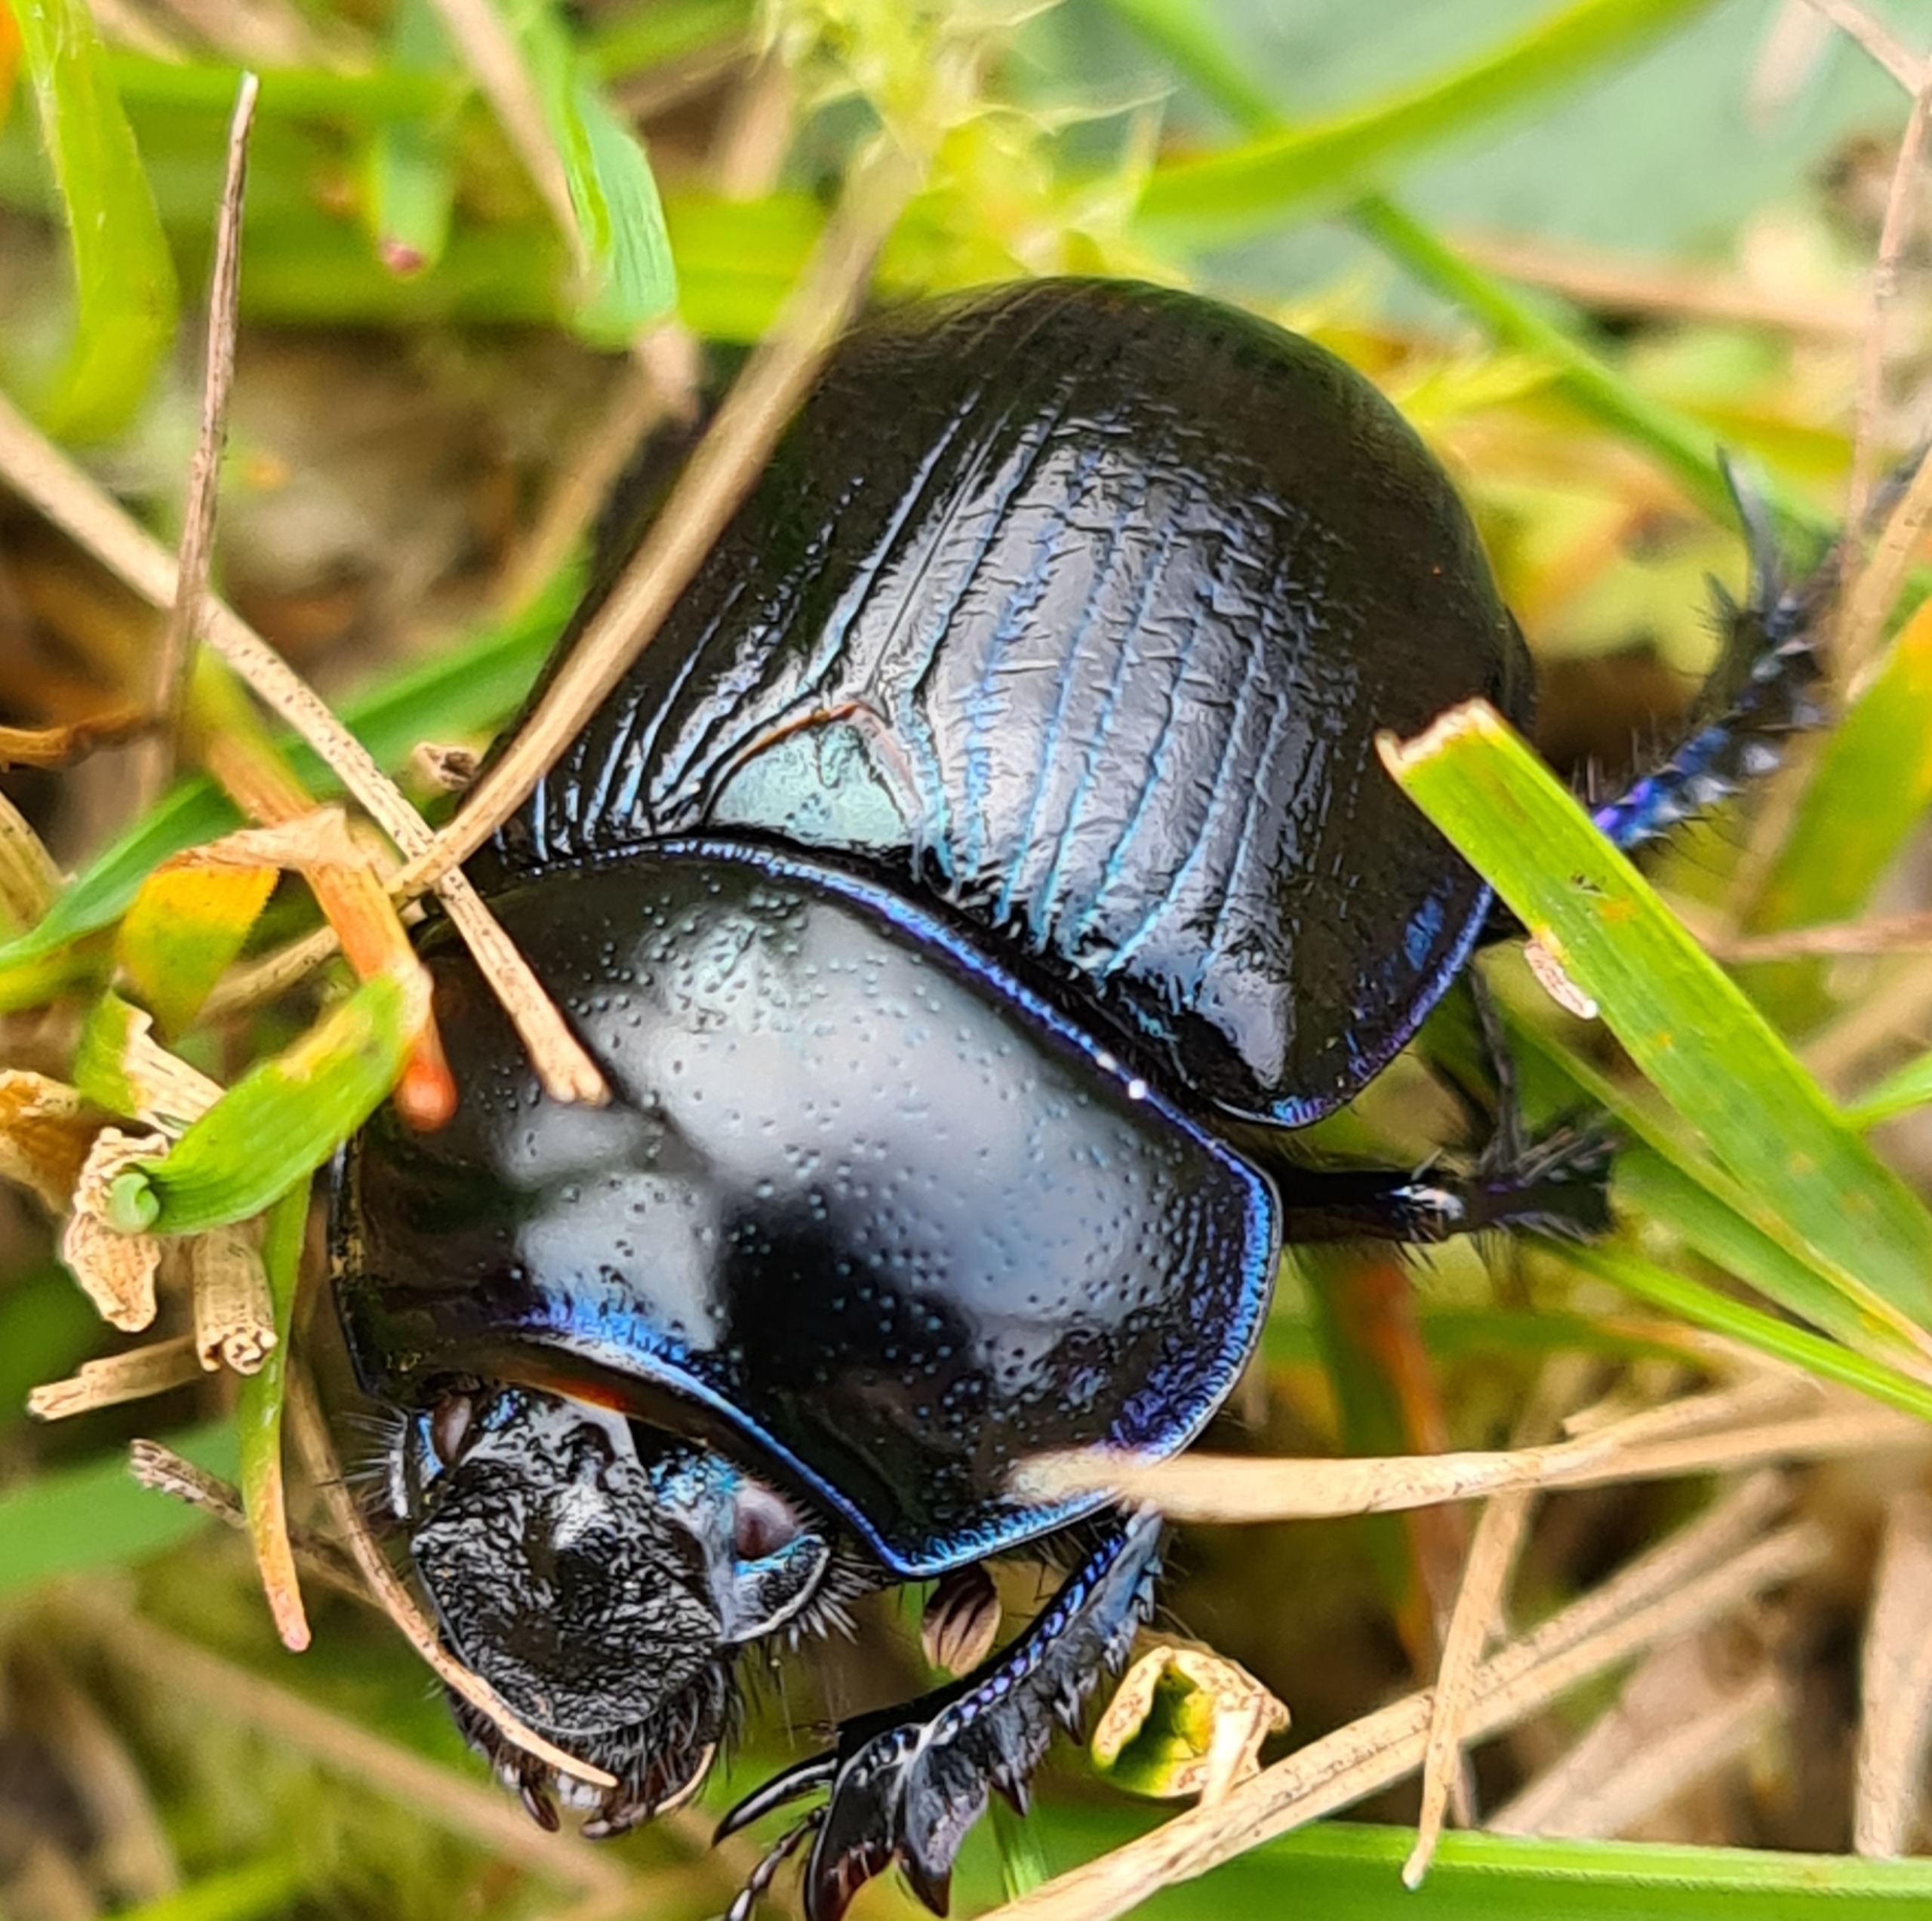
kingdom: Animalia
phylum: Arthropoda
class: Insecta
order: Coleoptera
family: Geotrupidae
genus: Anoplotrupes
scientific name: Anoplotrupes stercorosus
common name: Skovskarnbasse
